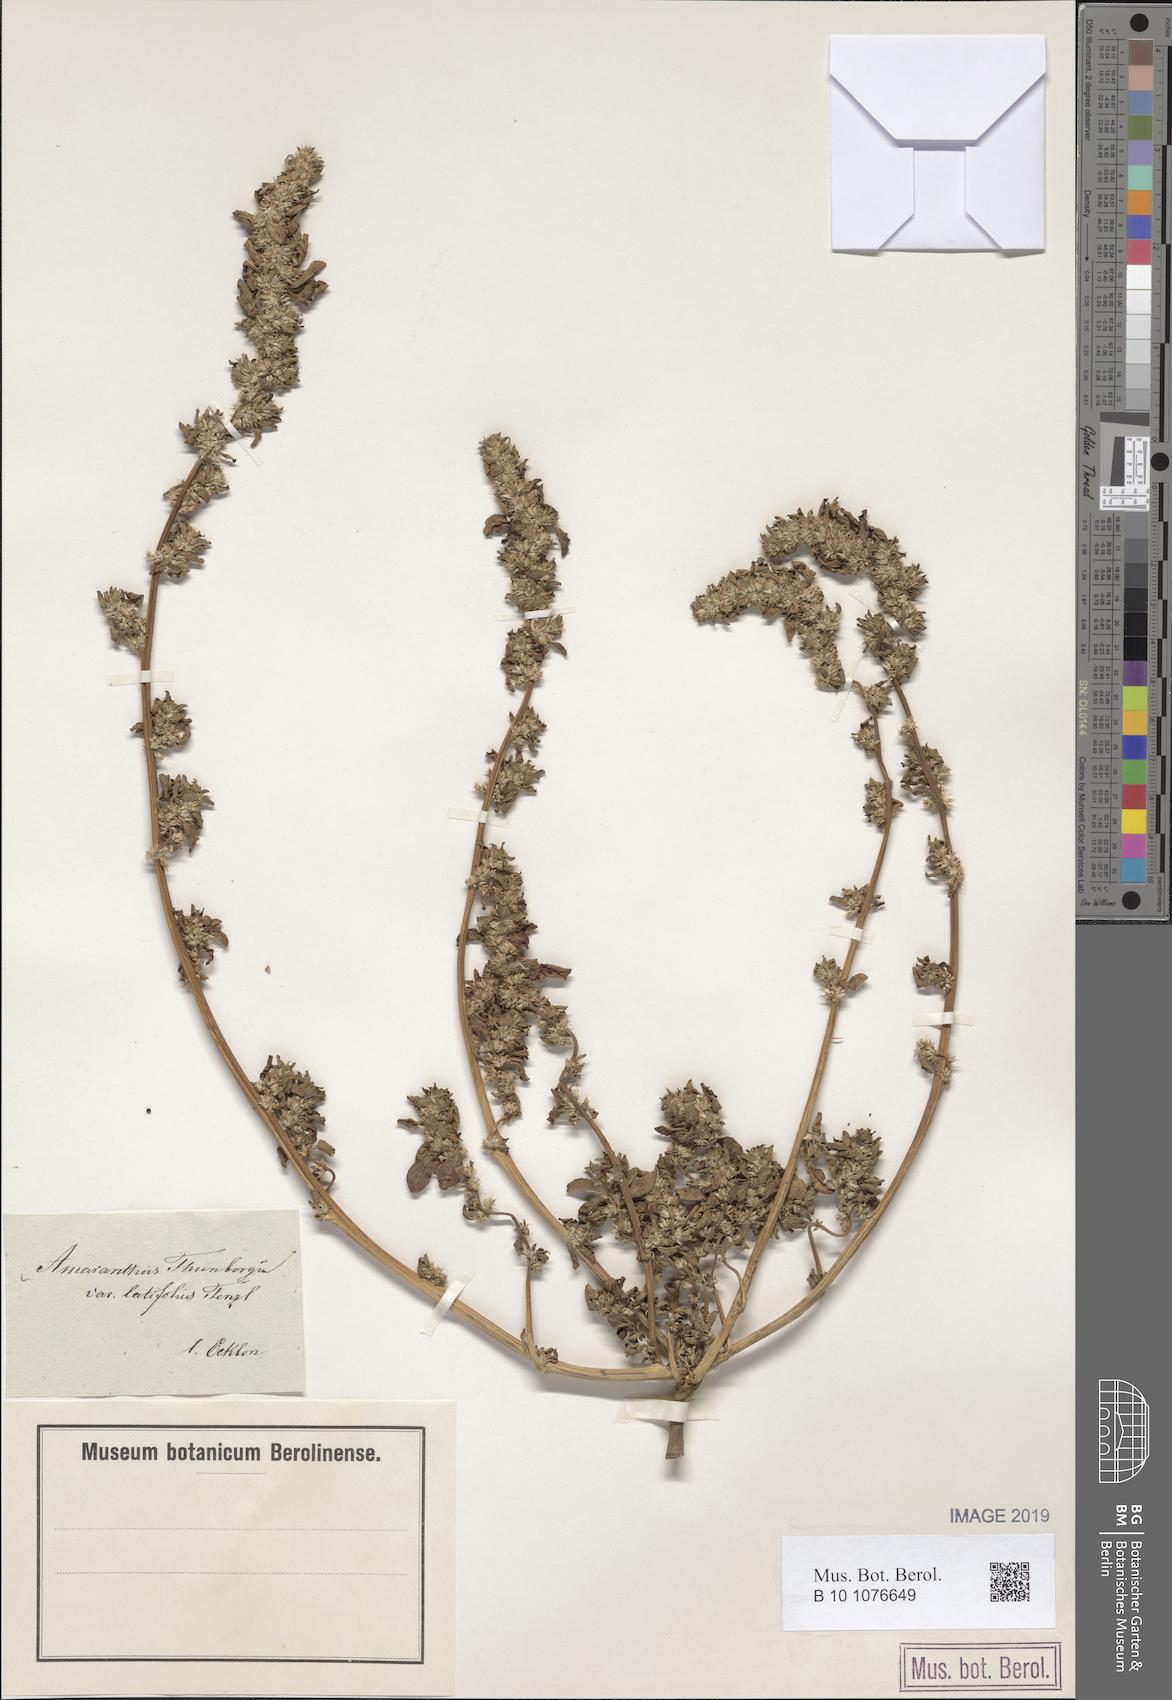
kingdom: Plantae
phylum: Tracheophyta
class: Magnoliopsida
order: Caryophyllales
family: Amaranthaceae
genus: Amaranthus
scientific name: Amaranthus thunbergii
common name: Thunberg's pigweed
